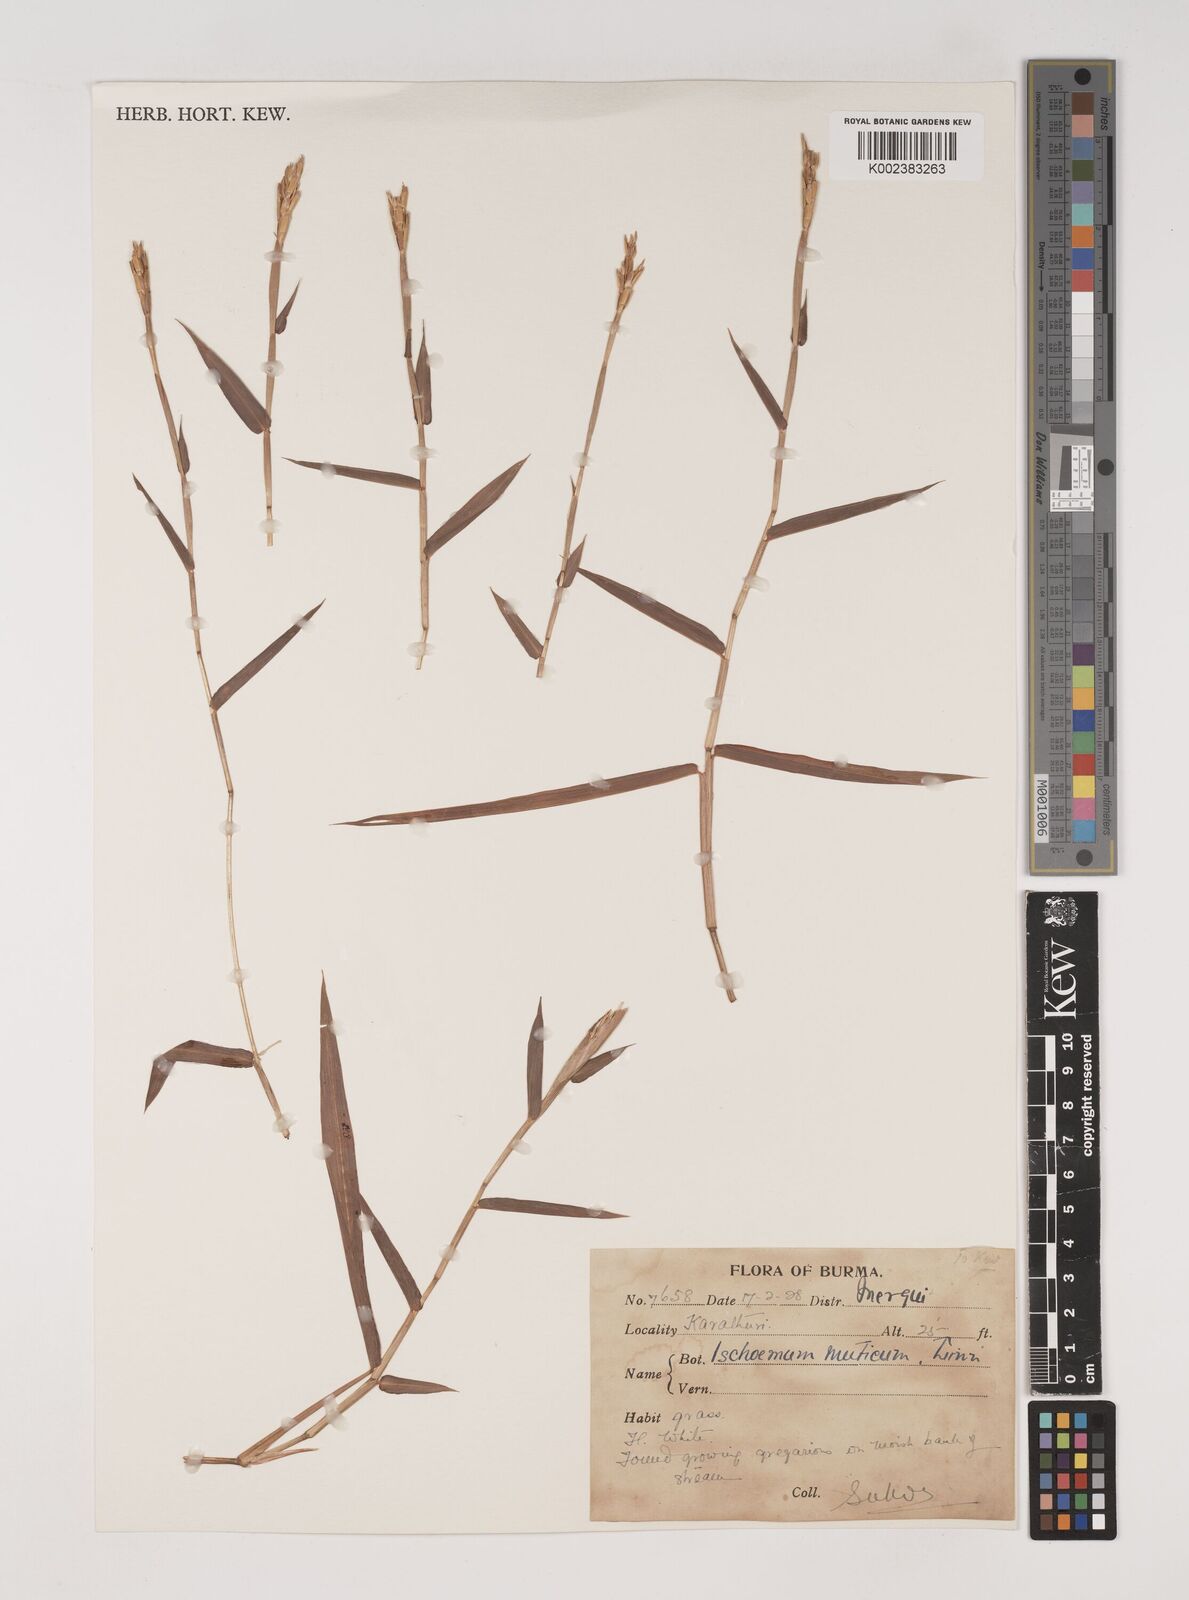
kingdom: Plantae
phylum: Tracheophyta
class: Liliopsida
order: Poales
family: Poaceae
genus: Ischaemum
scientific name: Ischaemum muticum
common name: Drought grass
